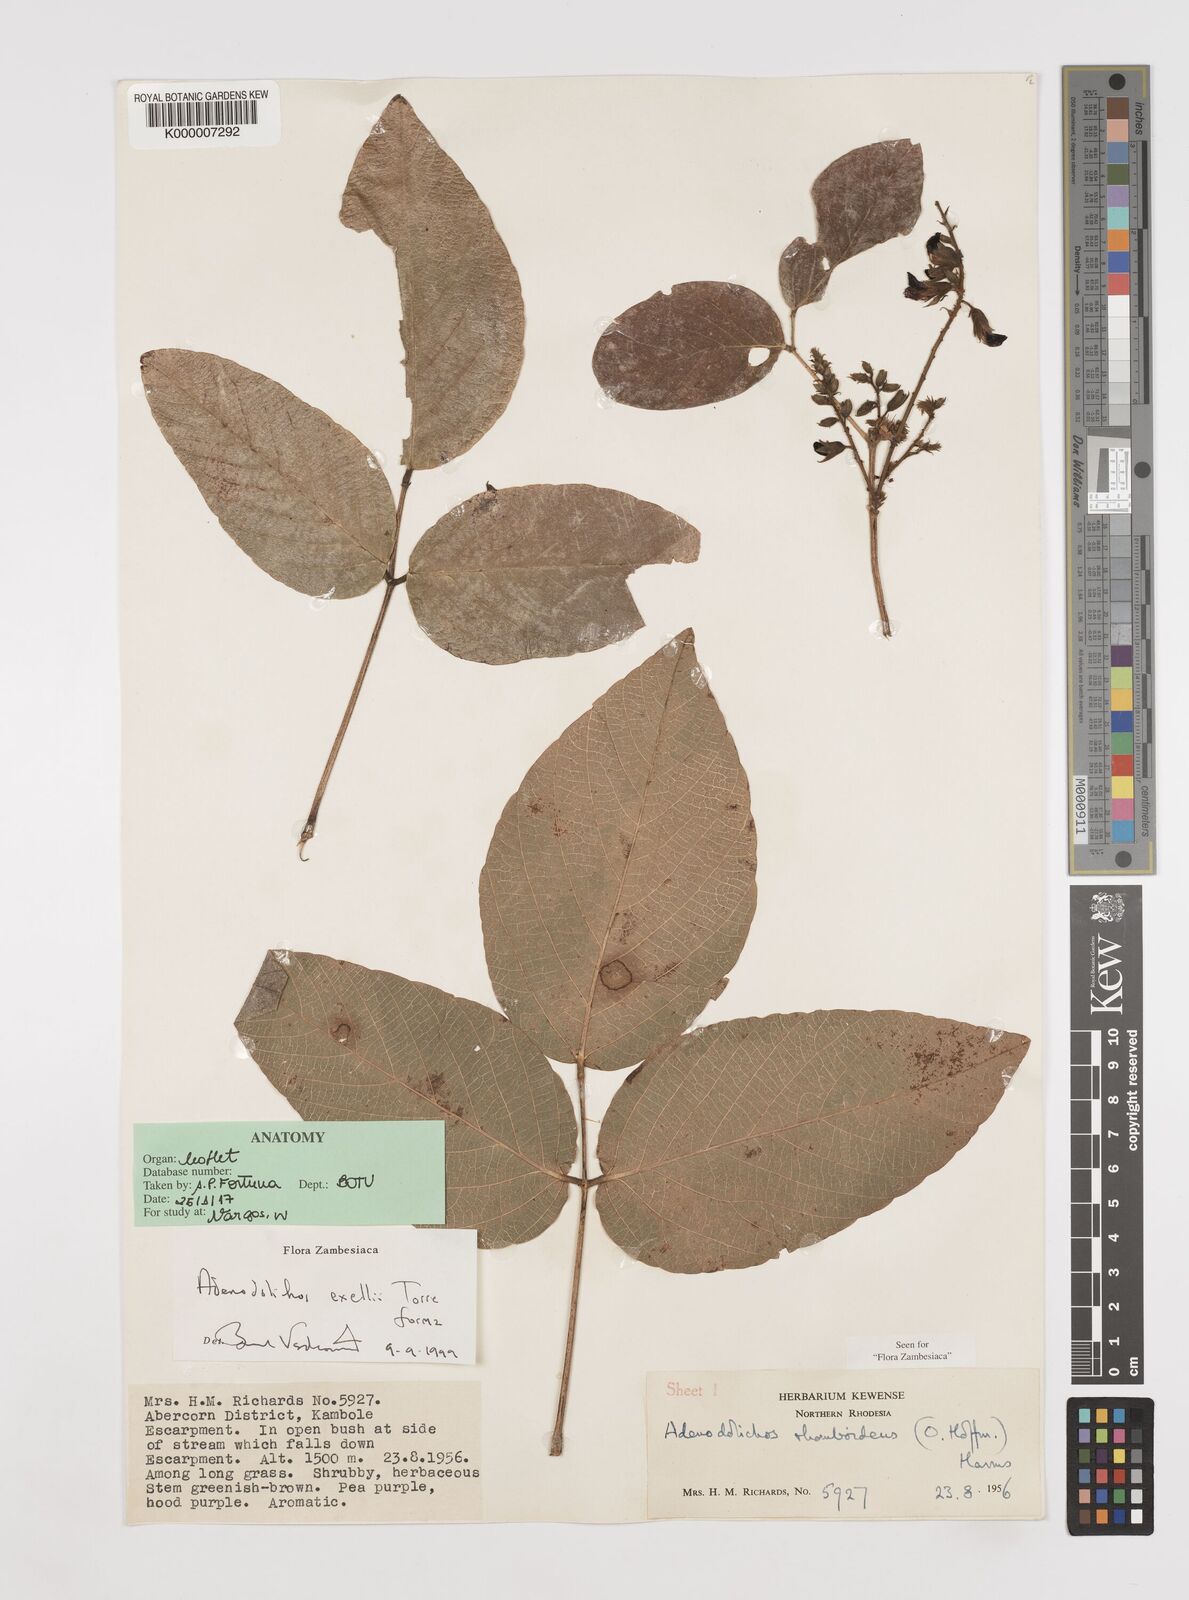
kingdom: Plantae
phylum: Tracheophyta
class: Magnoliopsida
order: Fabales
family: Fabaceae
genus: Adenodolichos
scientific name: Adenodolichos exellii
